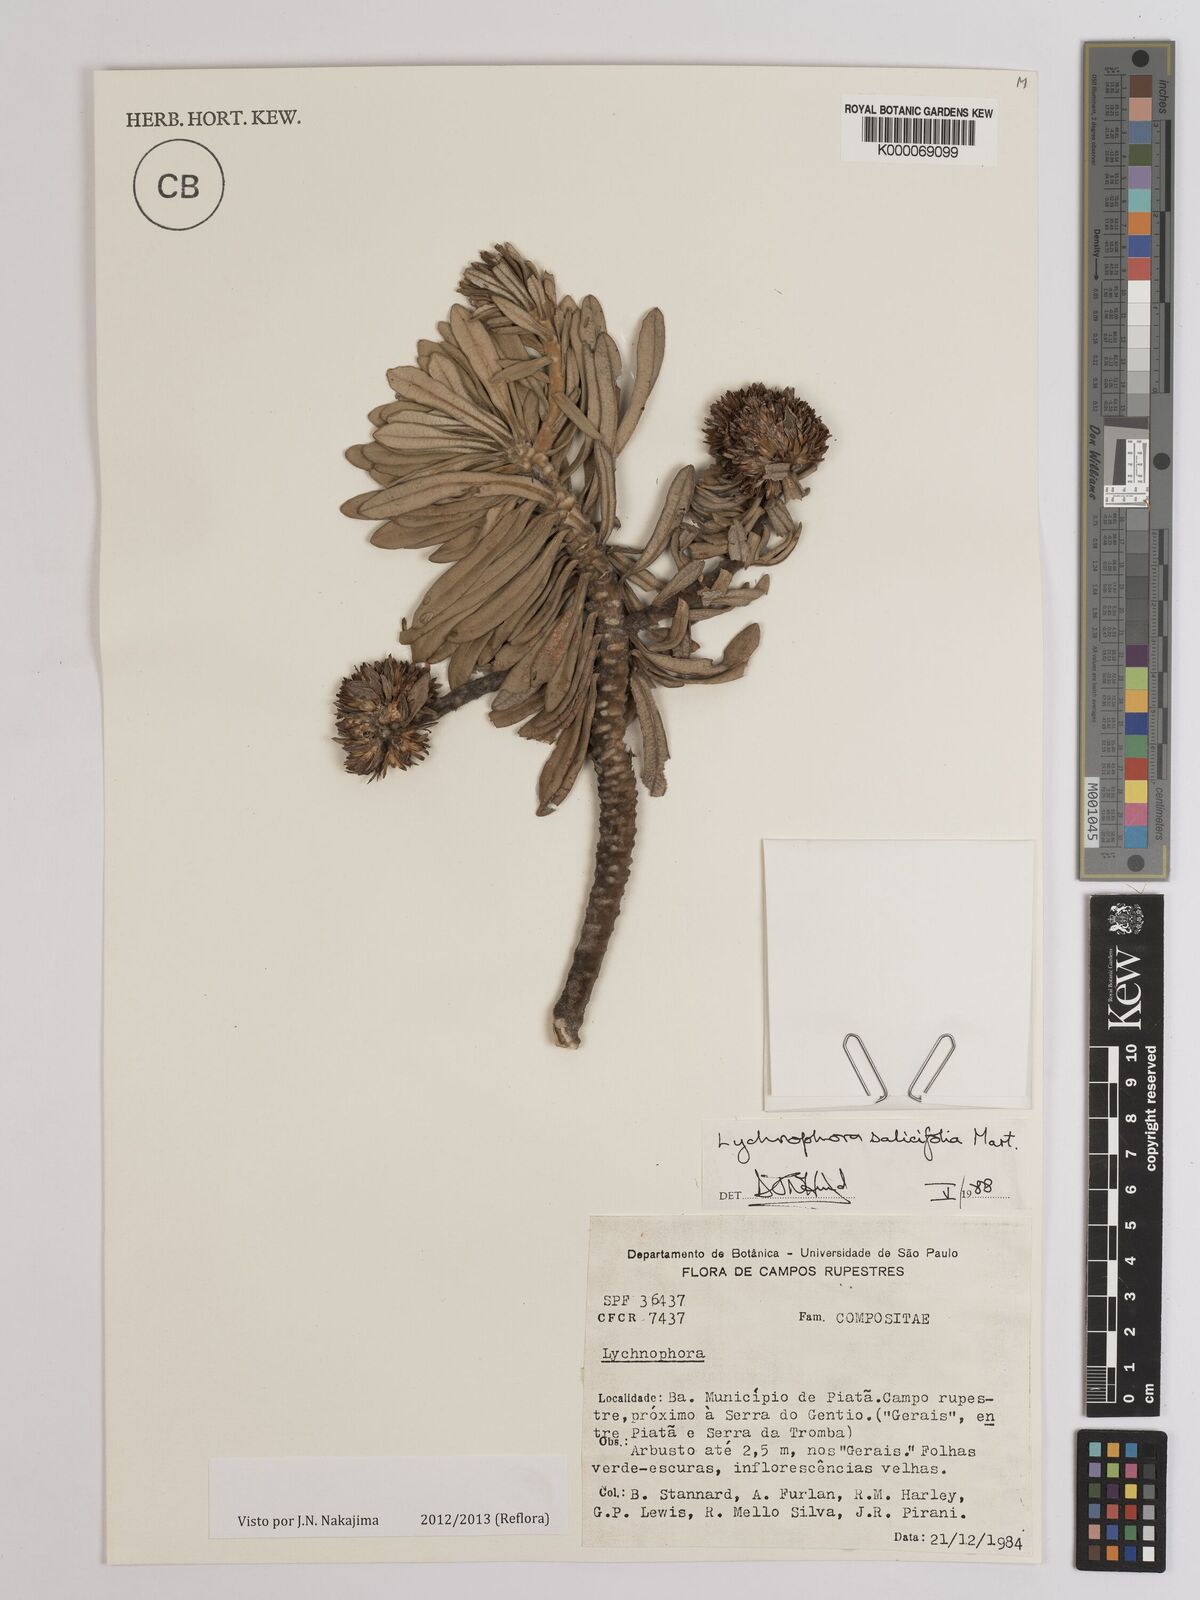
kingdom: Plantae
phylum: Tracheophyta
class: Magnoliopsida
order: Asterales
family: Asteraceae
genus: Lychnophora
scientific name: Lychnophora salicifolia
